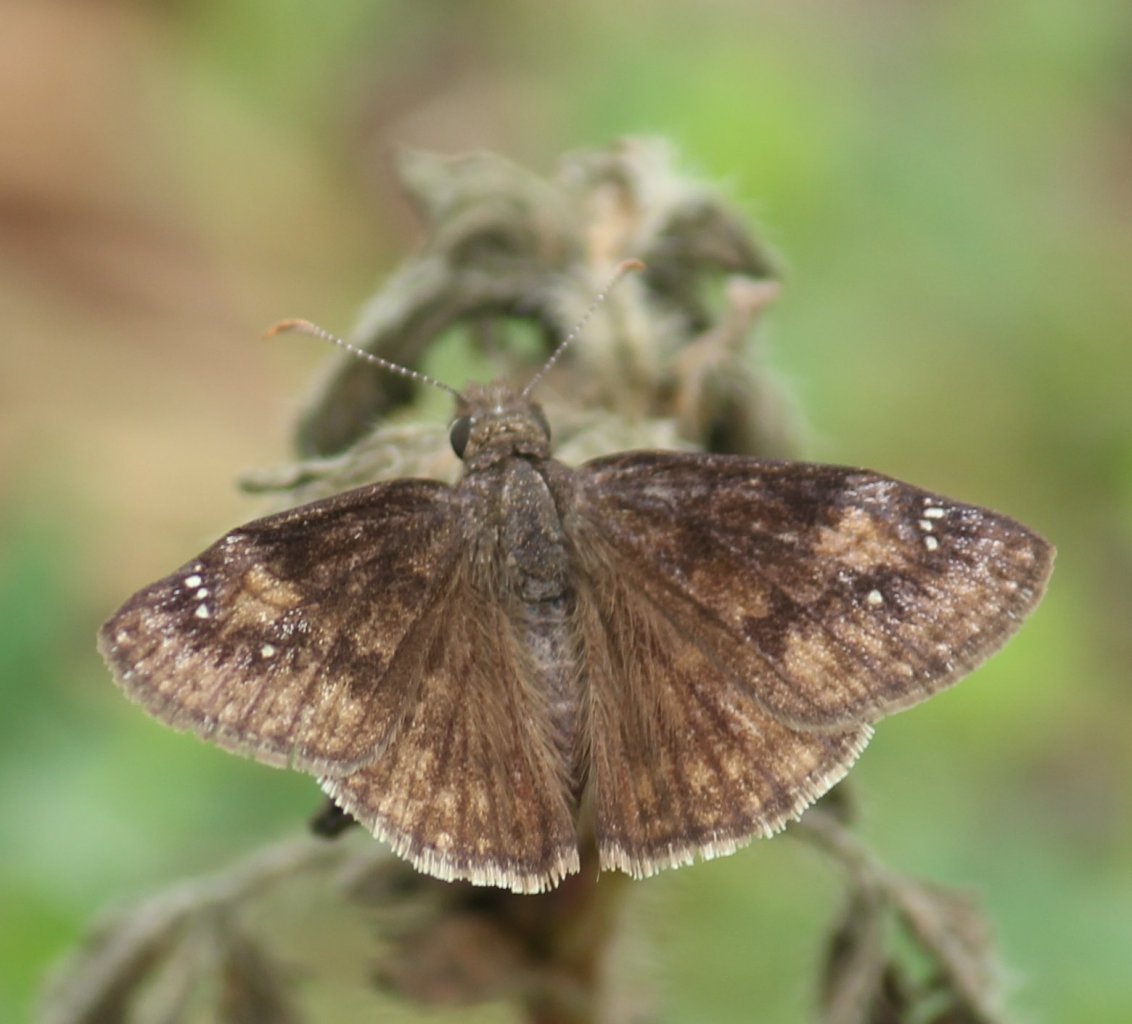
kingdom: Animalia
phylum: Arthropoda
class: Insecta
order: Lepidoptera
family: Hesperiidae
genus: Gesta
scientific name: Gesta
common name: Wild Indigo Duskywing
